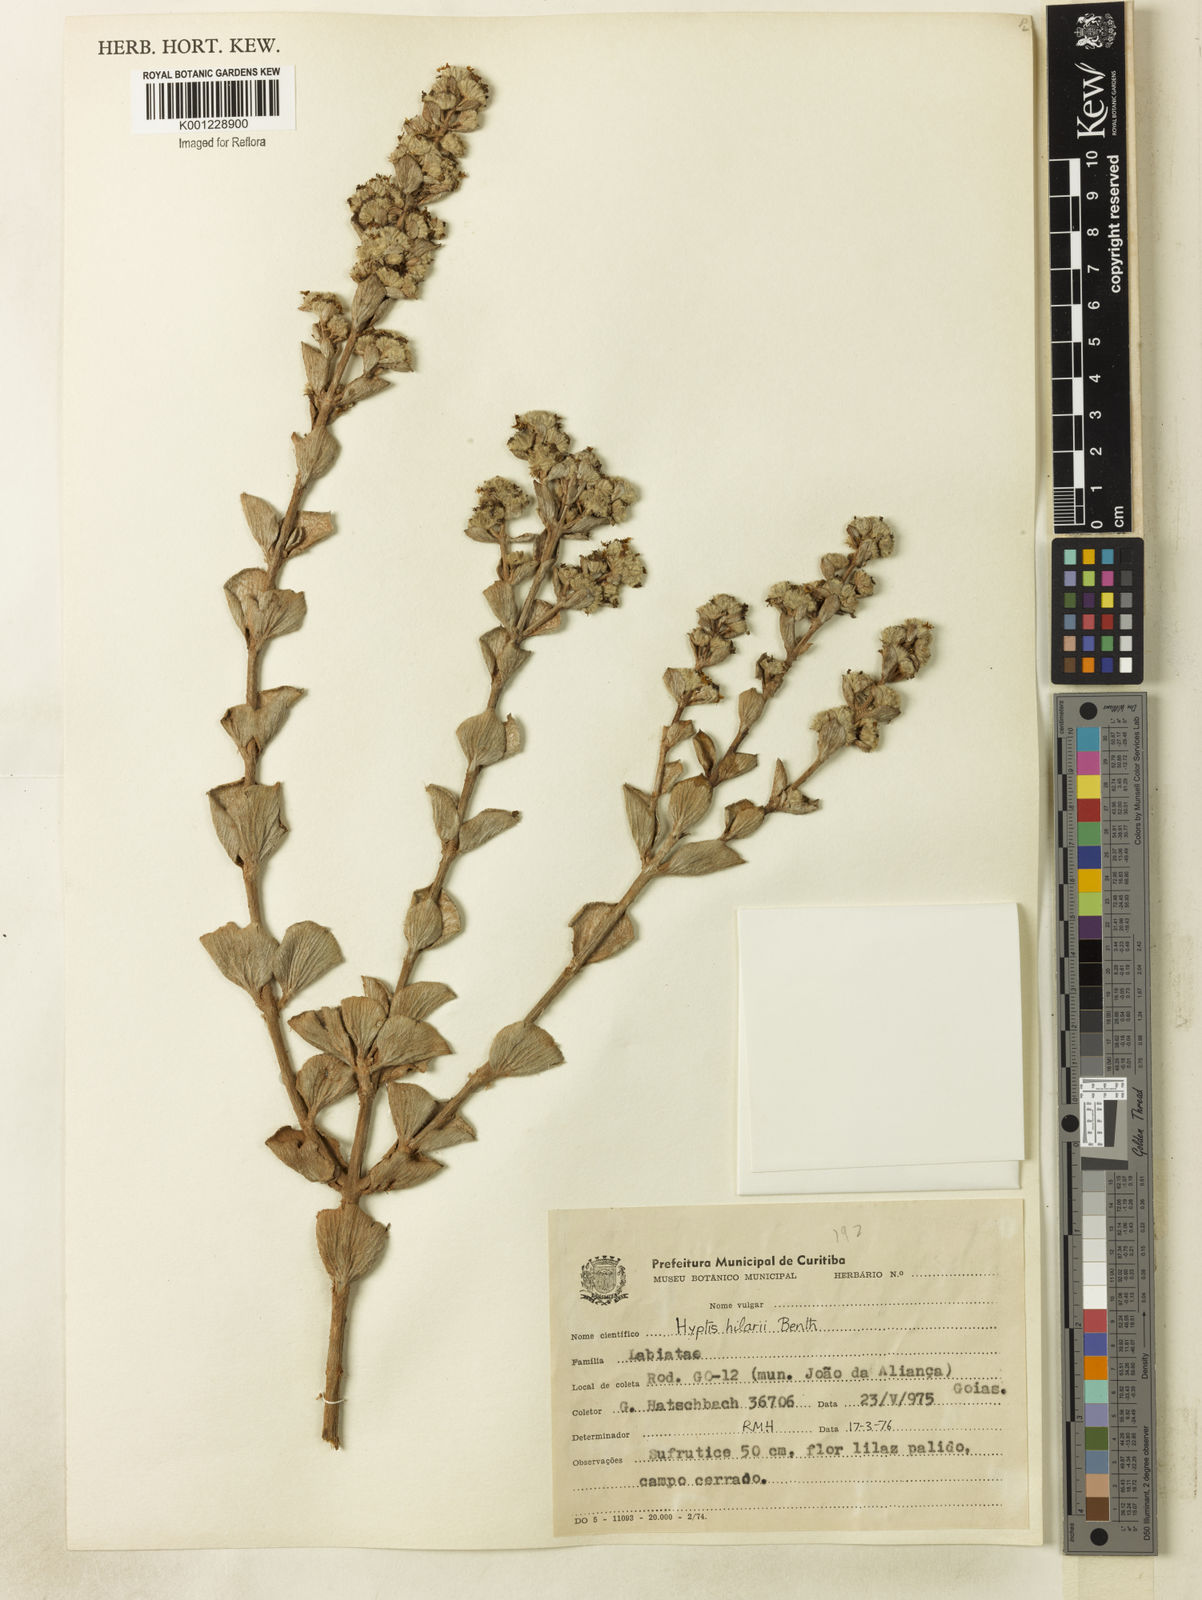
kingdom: Plantae
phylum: Tracheophyta
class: Magnoliopsida
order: Lamiales
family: Lamiaceae
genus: Hyptis
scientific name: Hyptis hilarii
